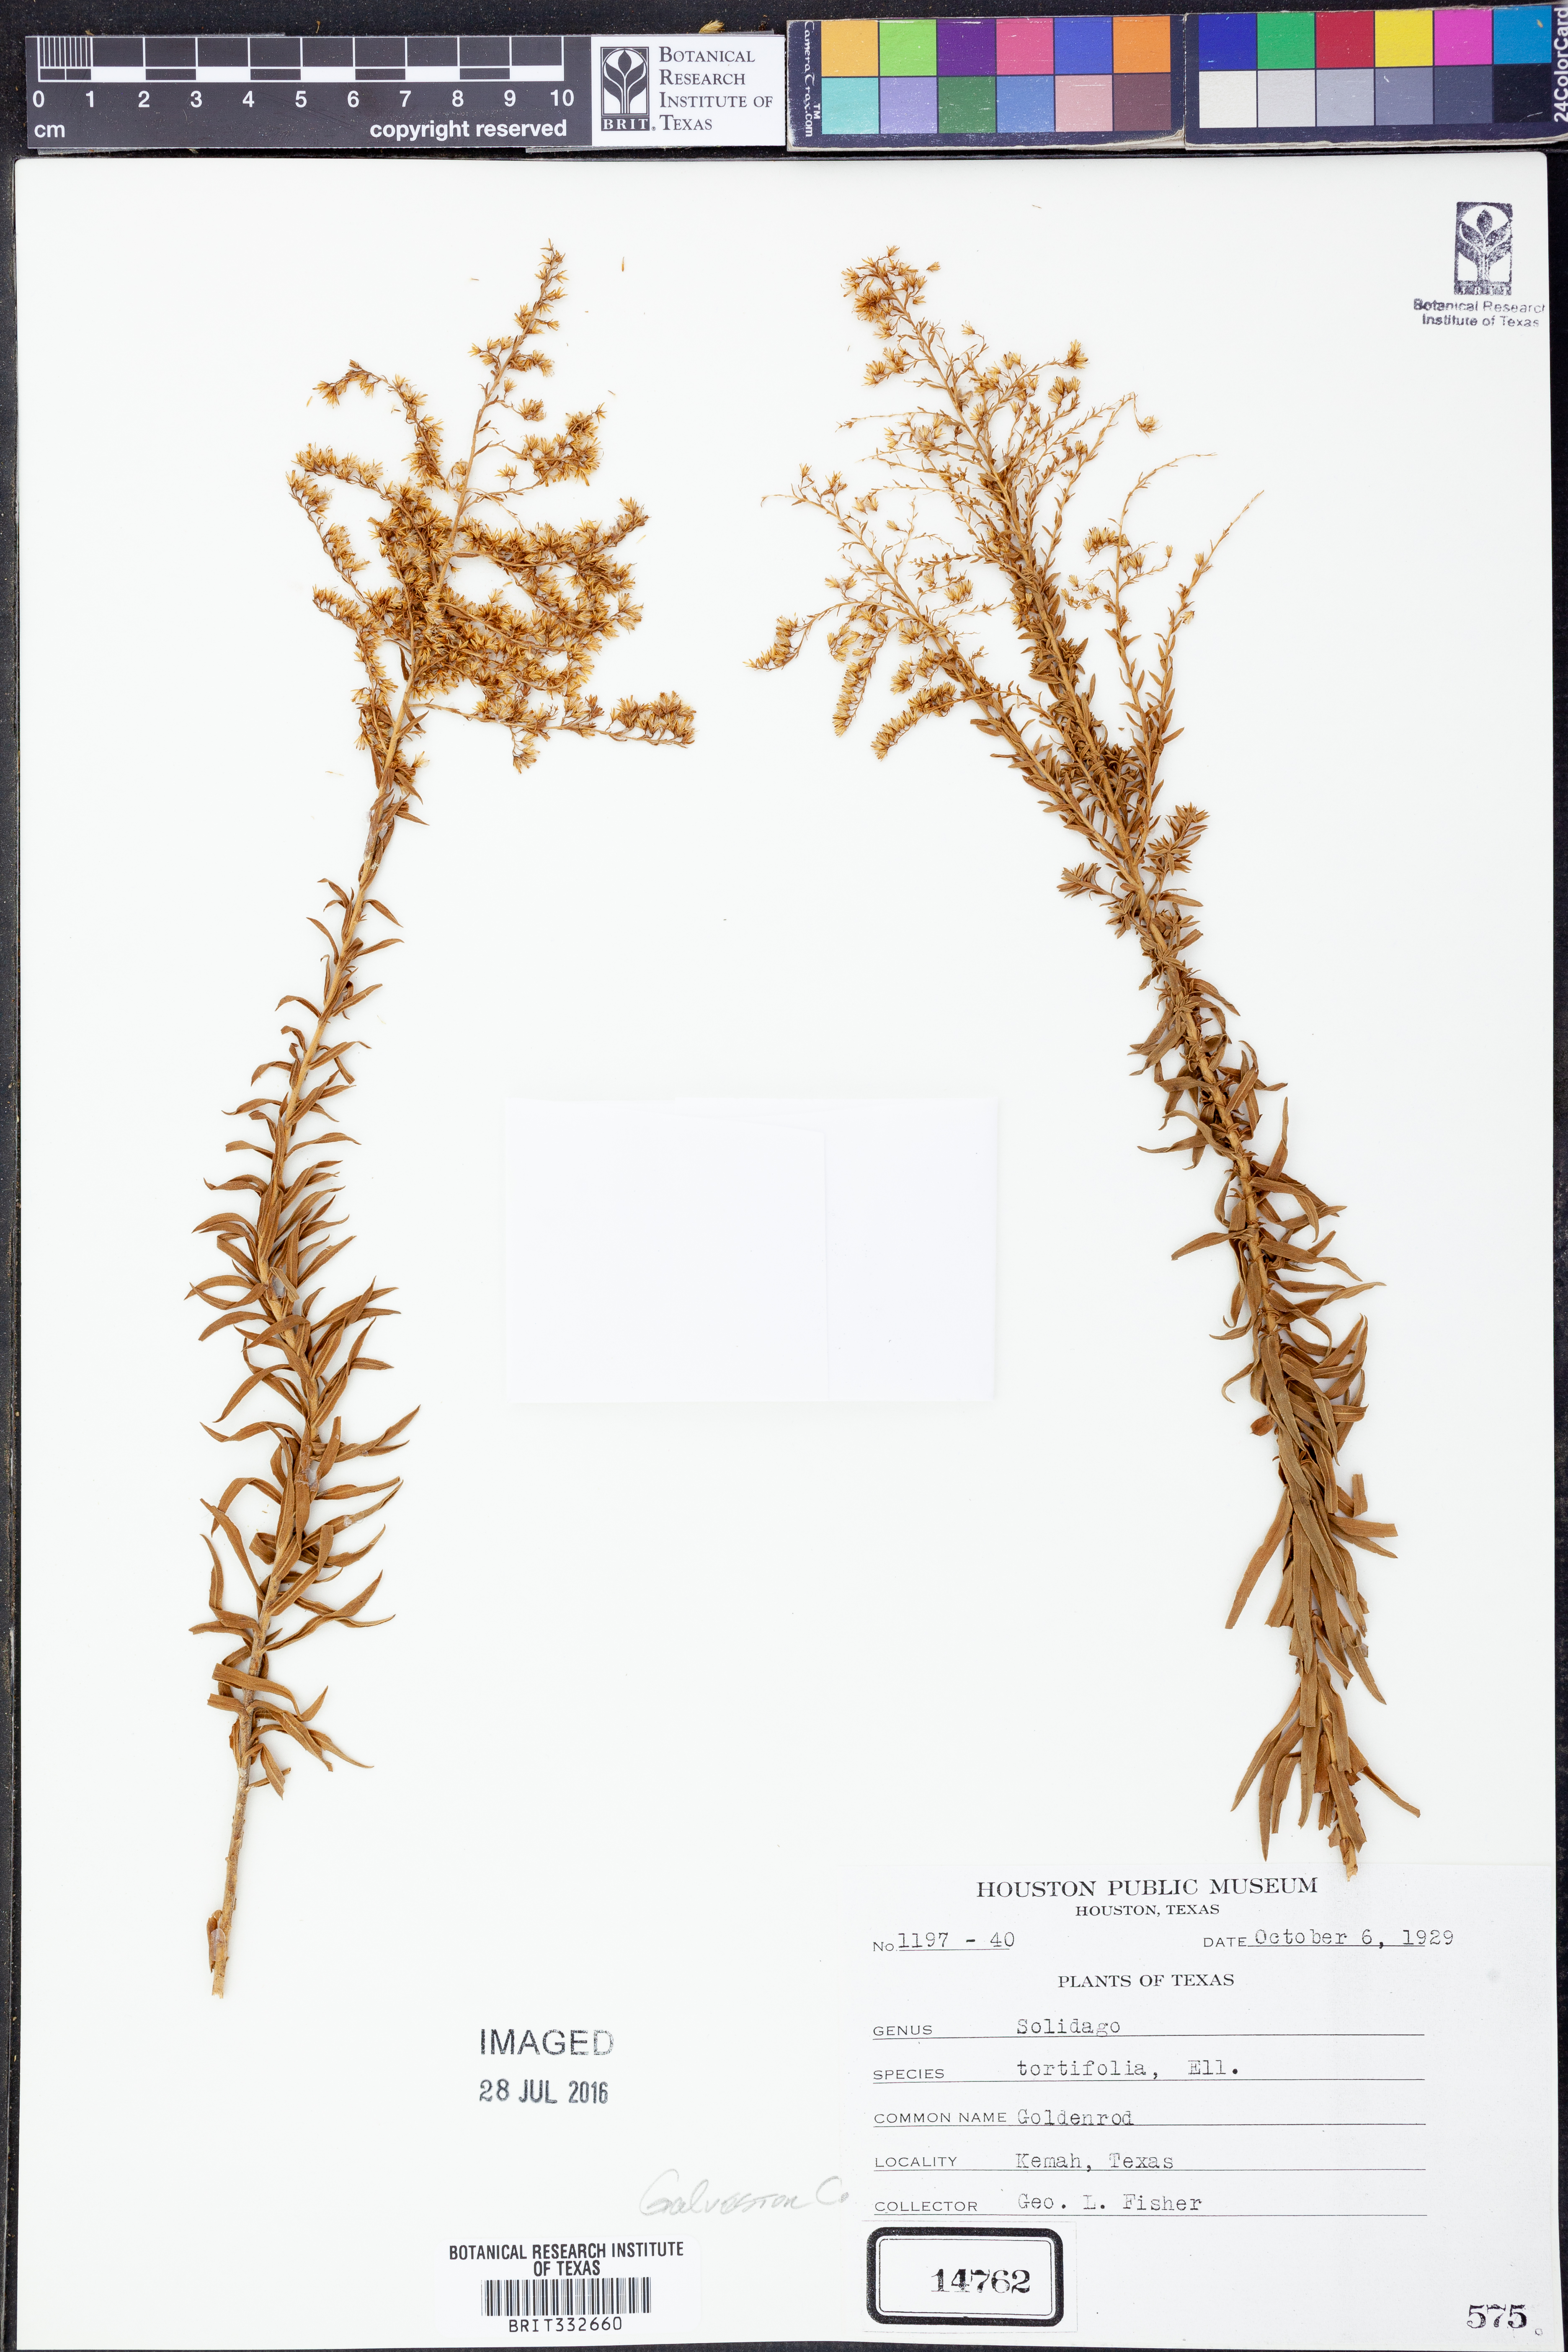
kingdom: Plantae
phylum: Tracheophyta
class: Magnoliopsida
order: Asterales
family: Asteraceae
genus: Solidago
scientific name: Solidago tortifolia
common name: Twisted-leaf goldenrod
